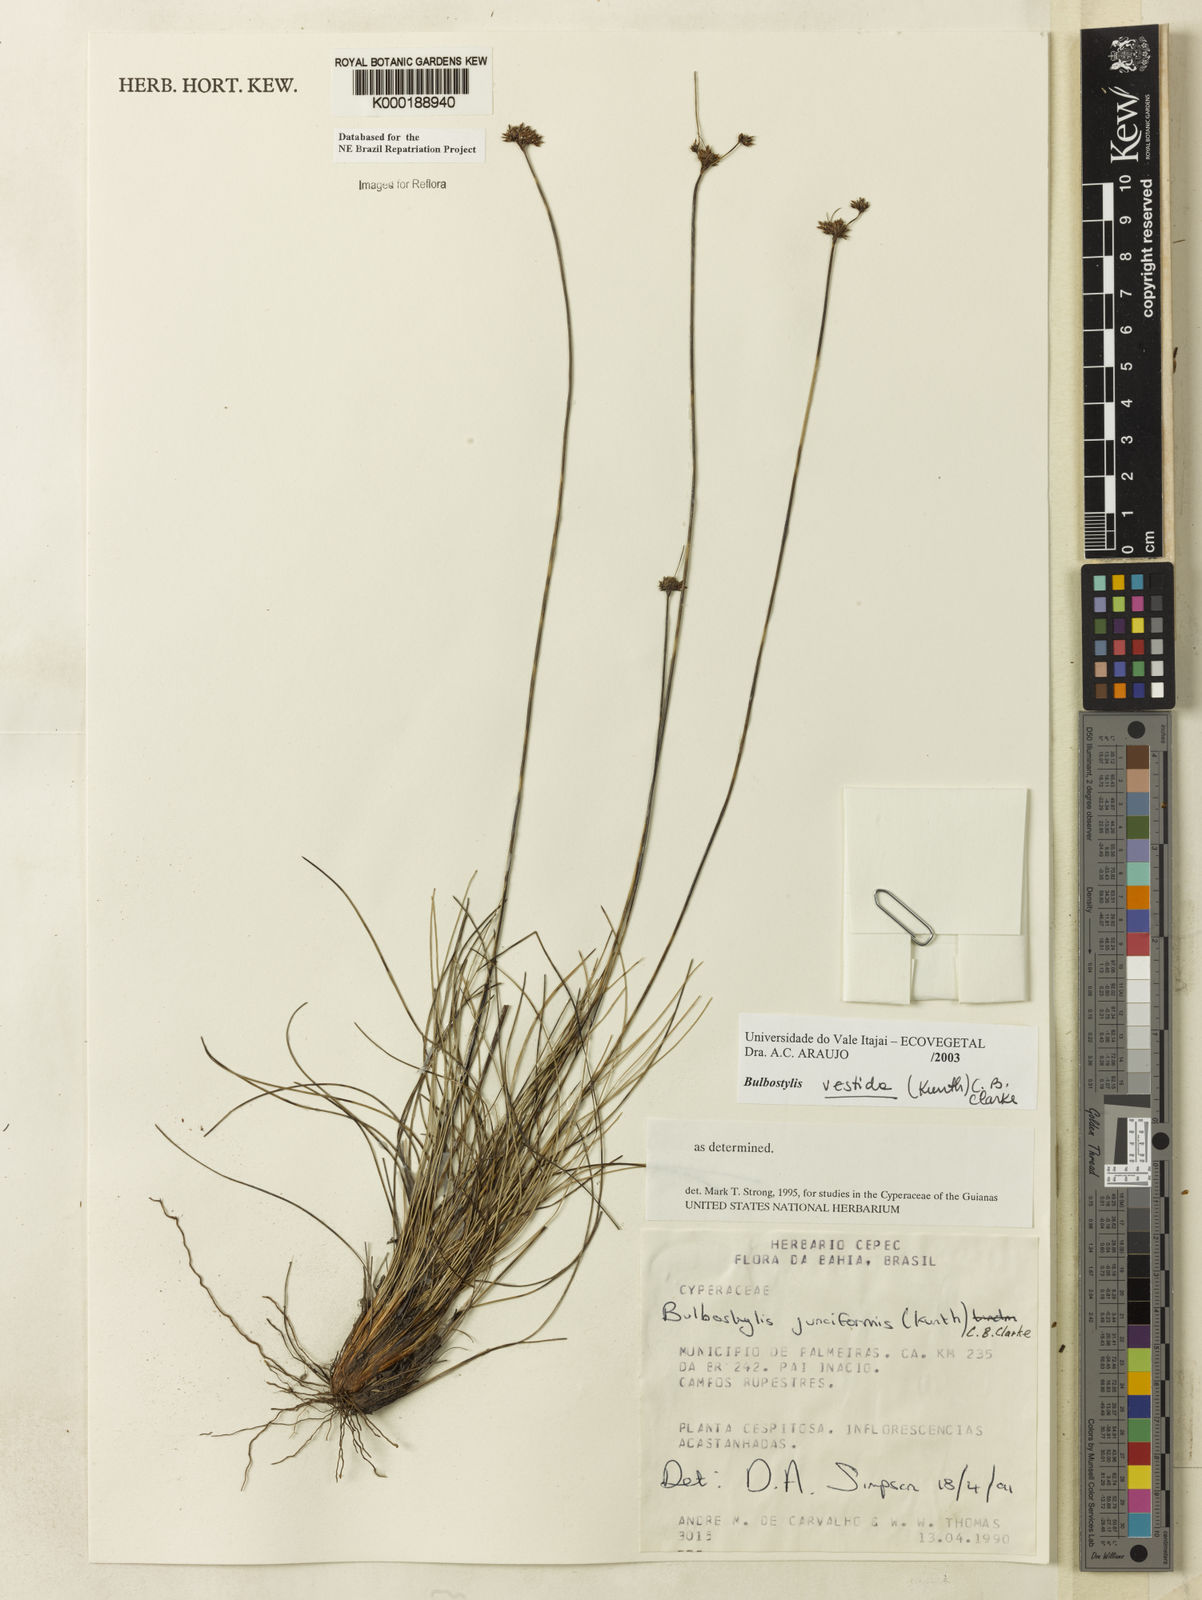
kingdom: Plantae
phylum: Tracheophyta
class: Liliopsida
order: Poales
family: Cyperaceae
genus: Bulbostylis
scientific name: Bulbostylis vestita
